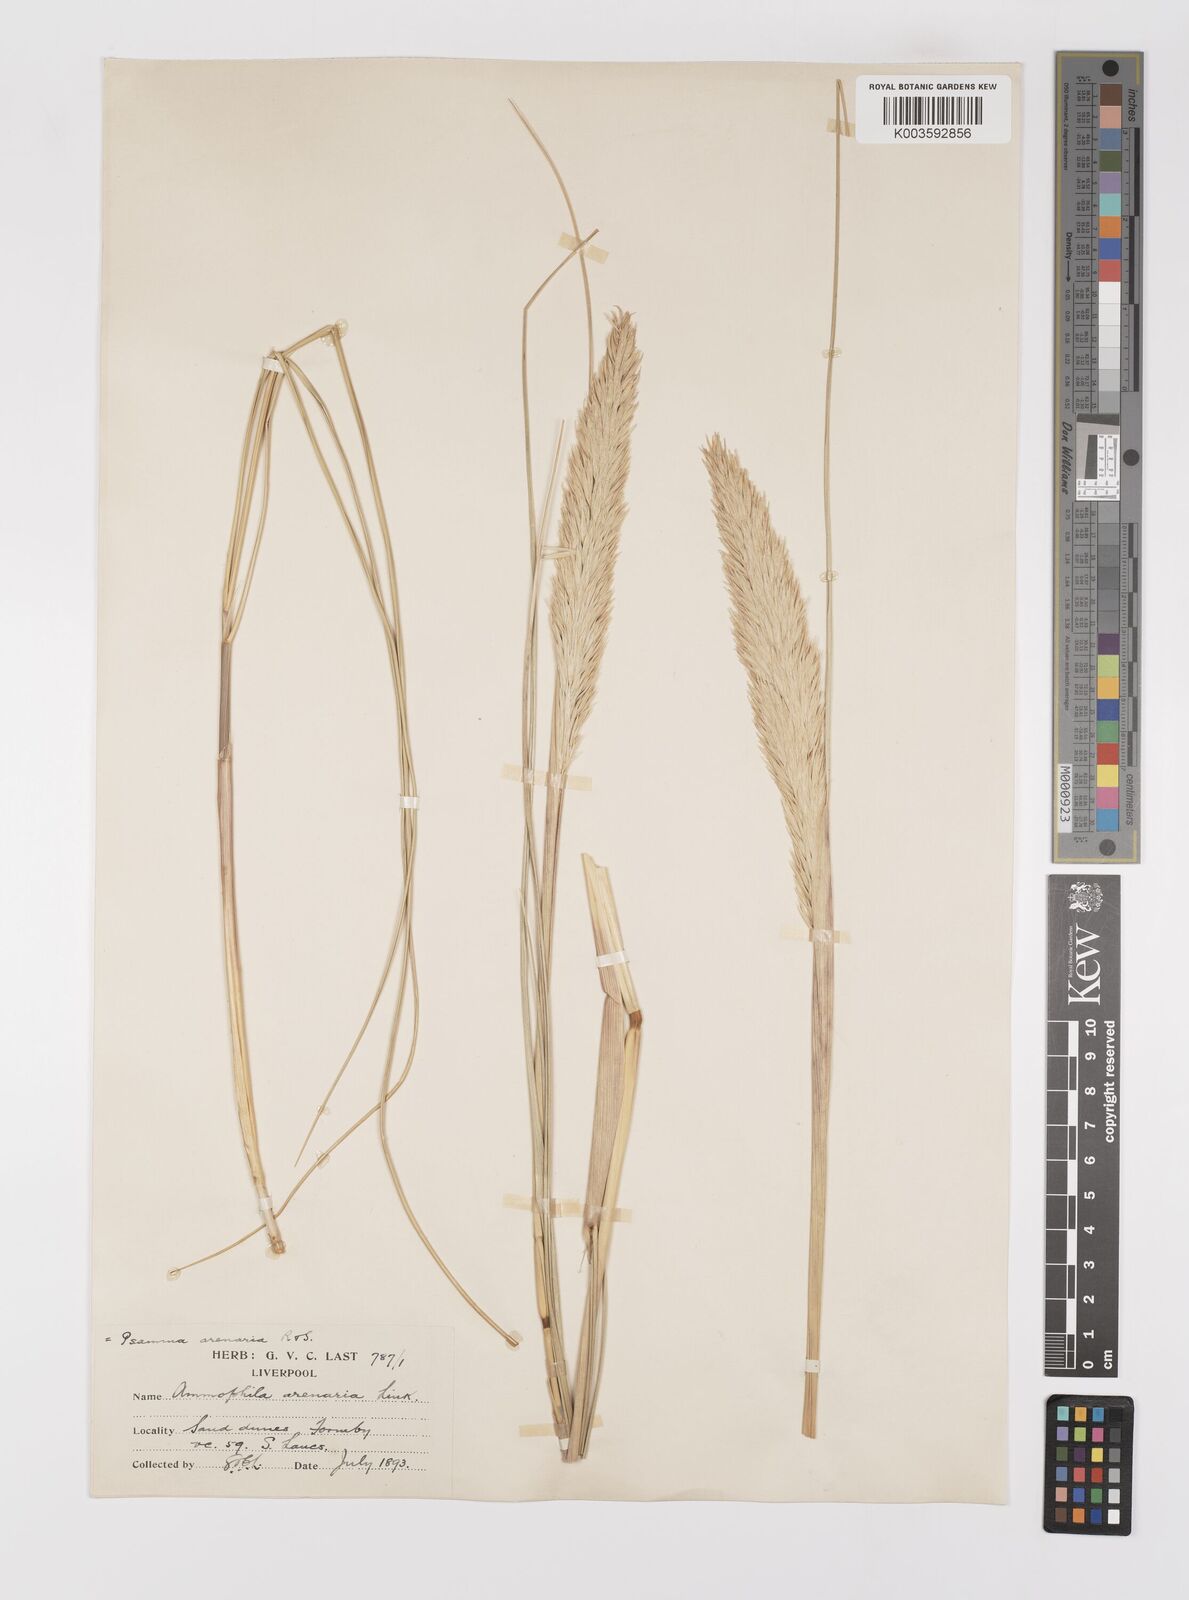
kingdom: Plantae
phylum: Tracheophyta
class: Liliopsida
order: Poales
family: Poaceae
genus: Calamagrostis
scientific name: Calamagrostis arenaria
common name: European beachgrass
